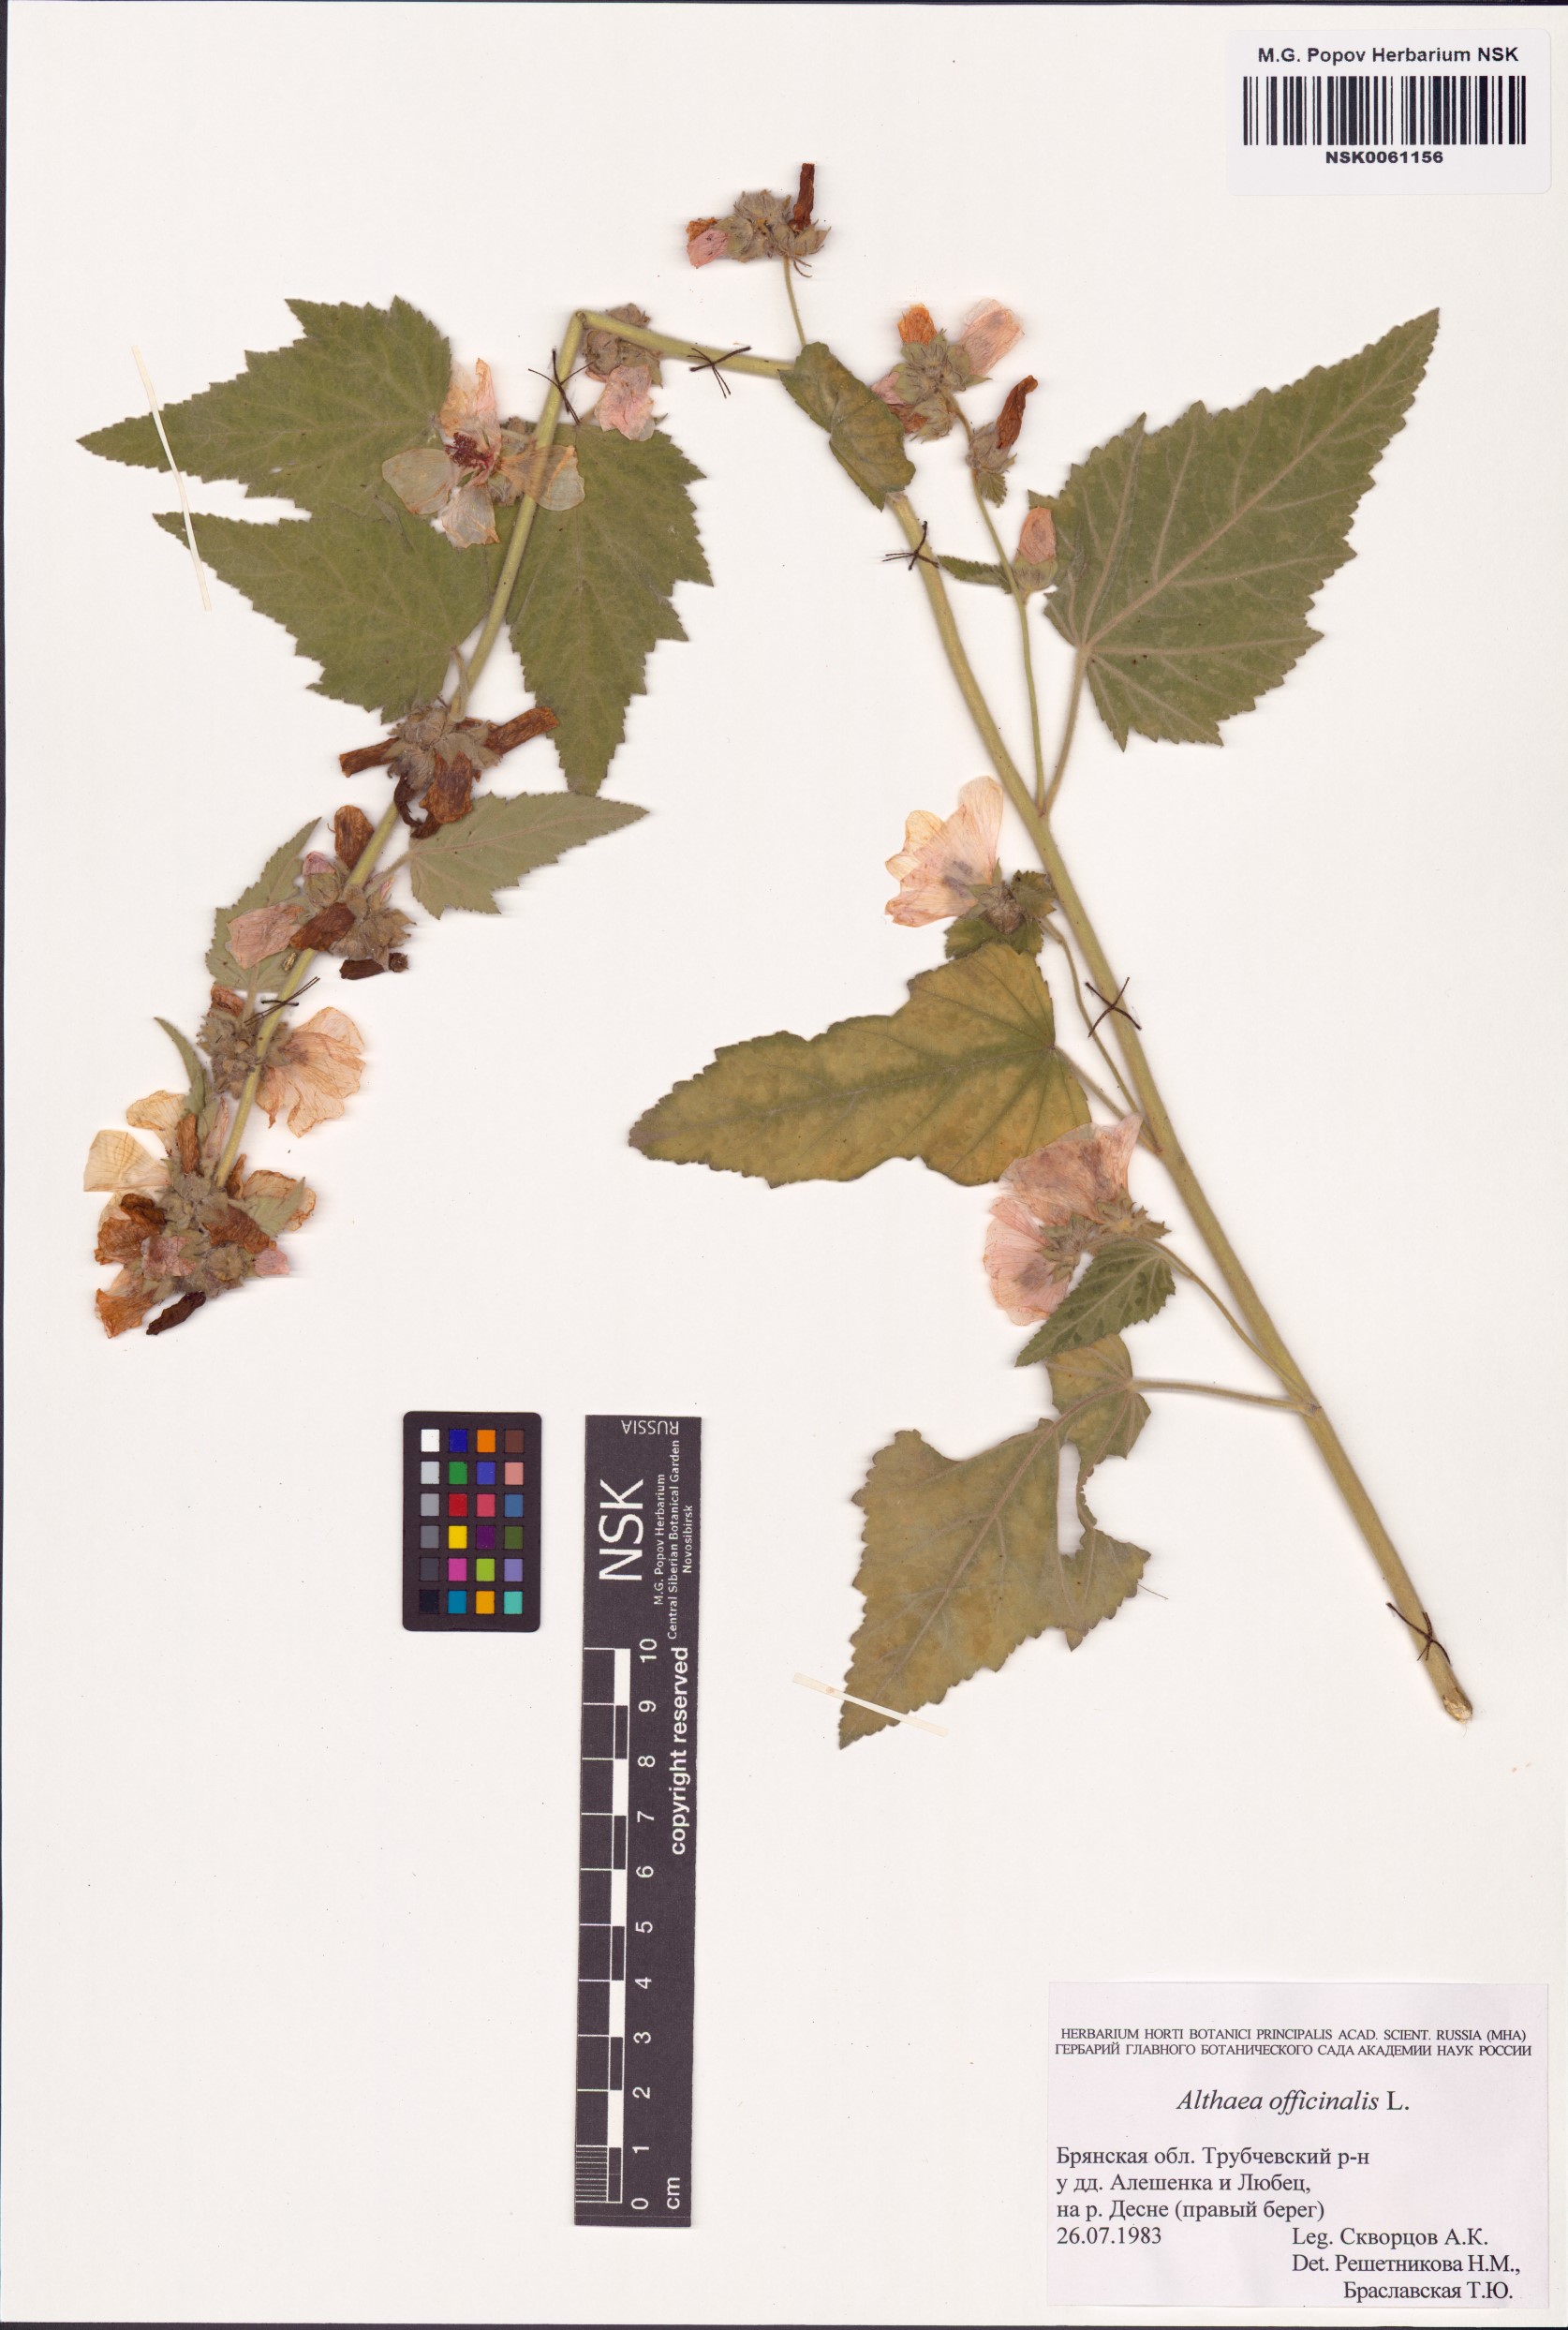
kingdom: Plantae
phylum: Tracheophyta
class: Magnoliopsida
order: Malvales
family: Malvaceae
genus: Althaea
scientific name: Althaea officinalis
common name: Marsh-mallow
